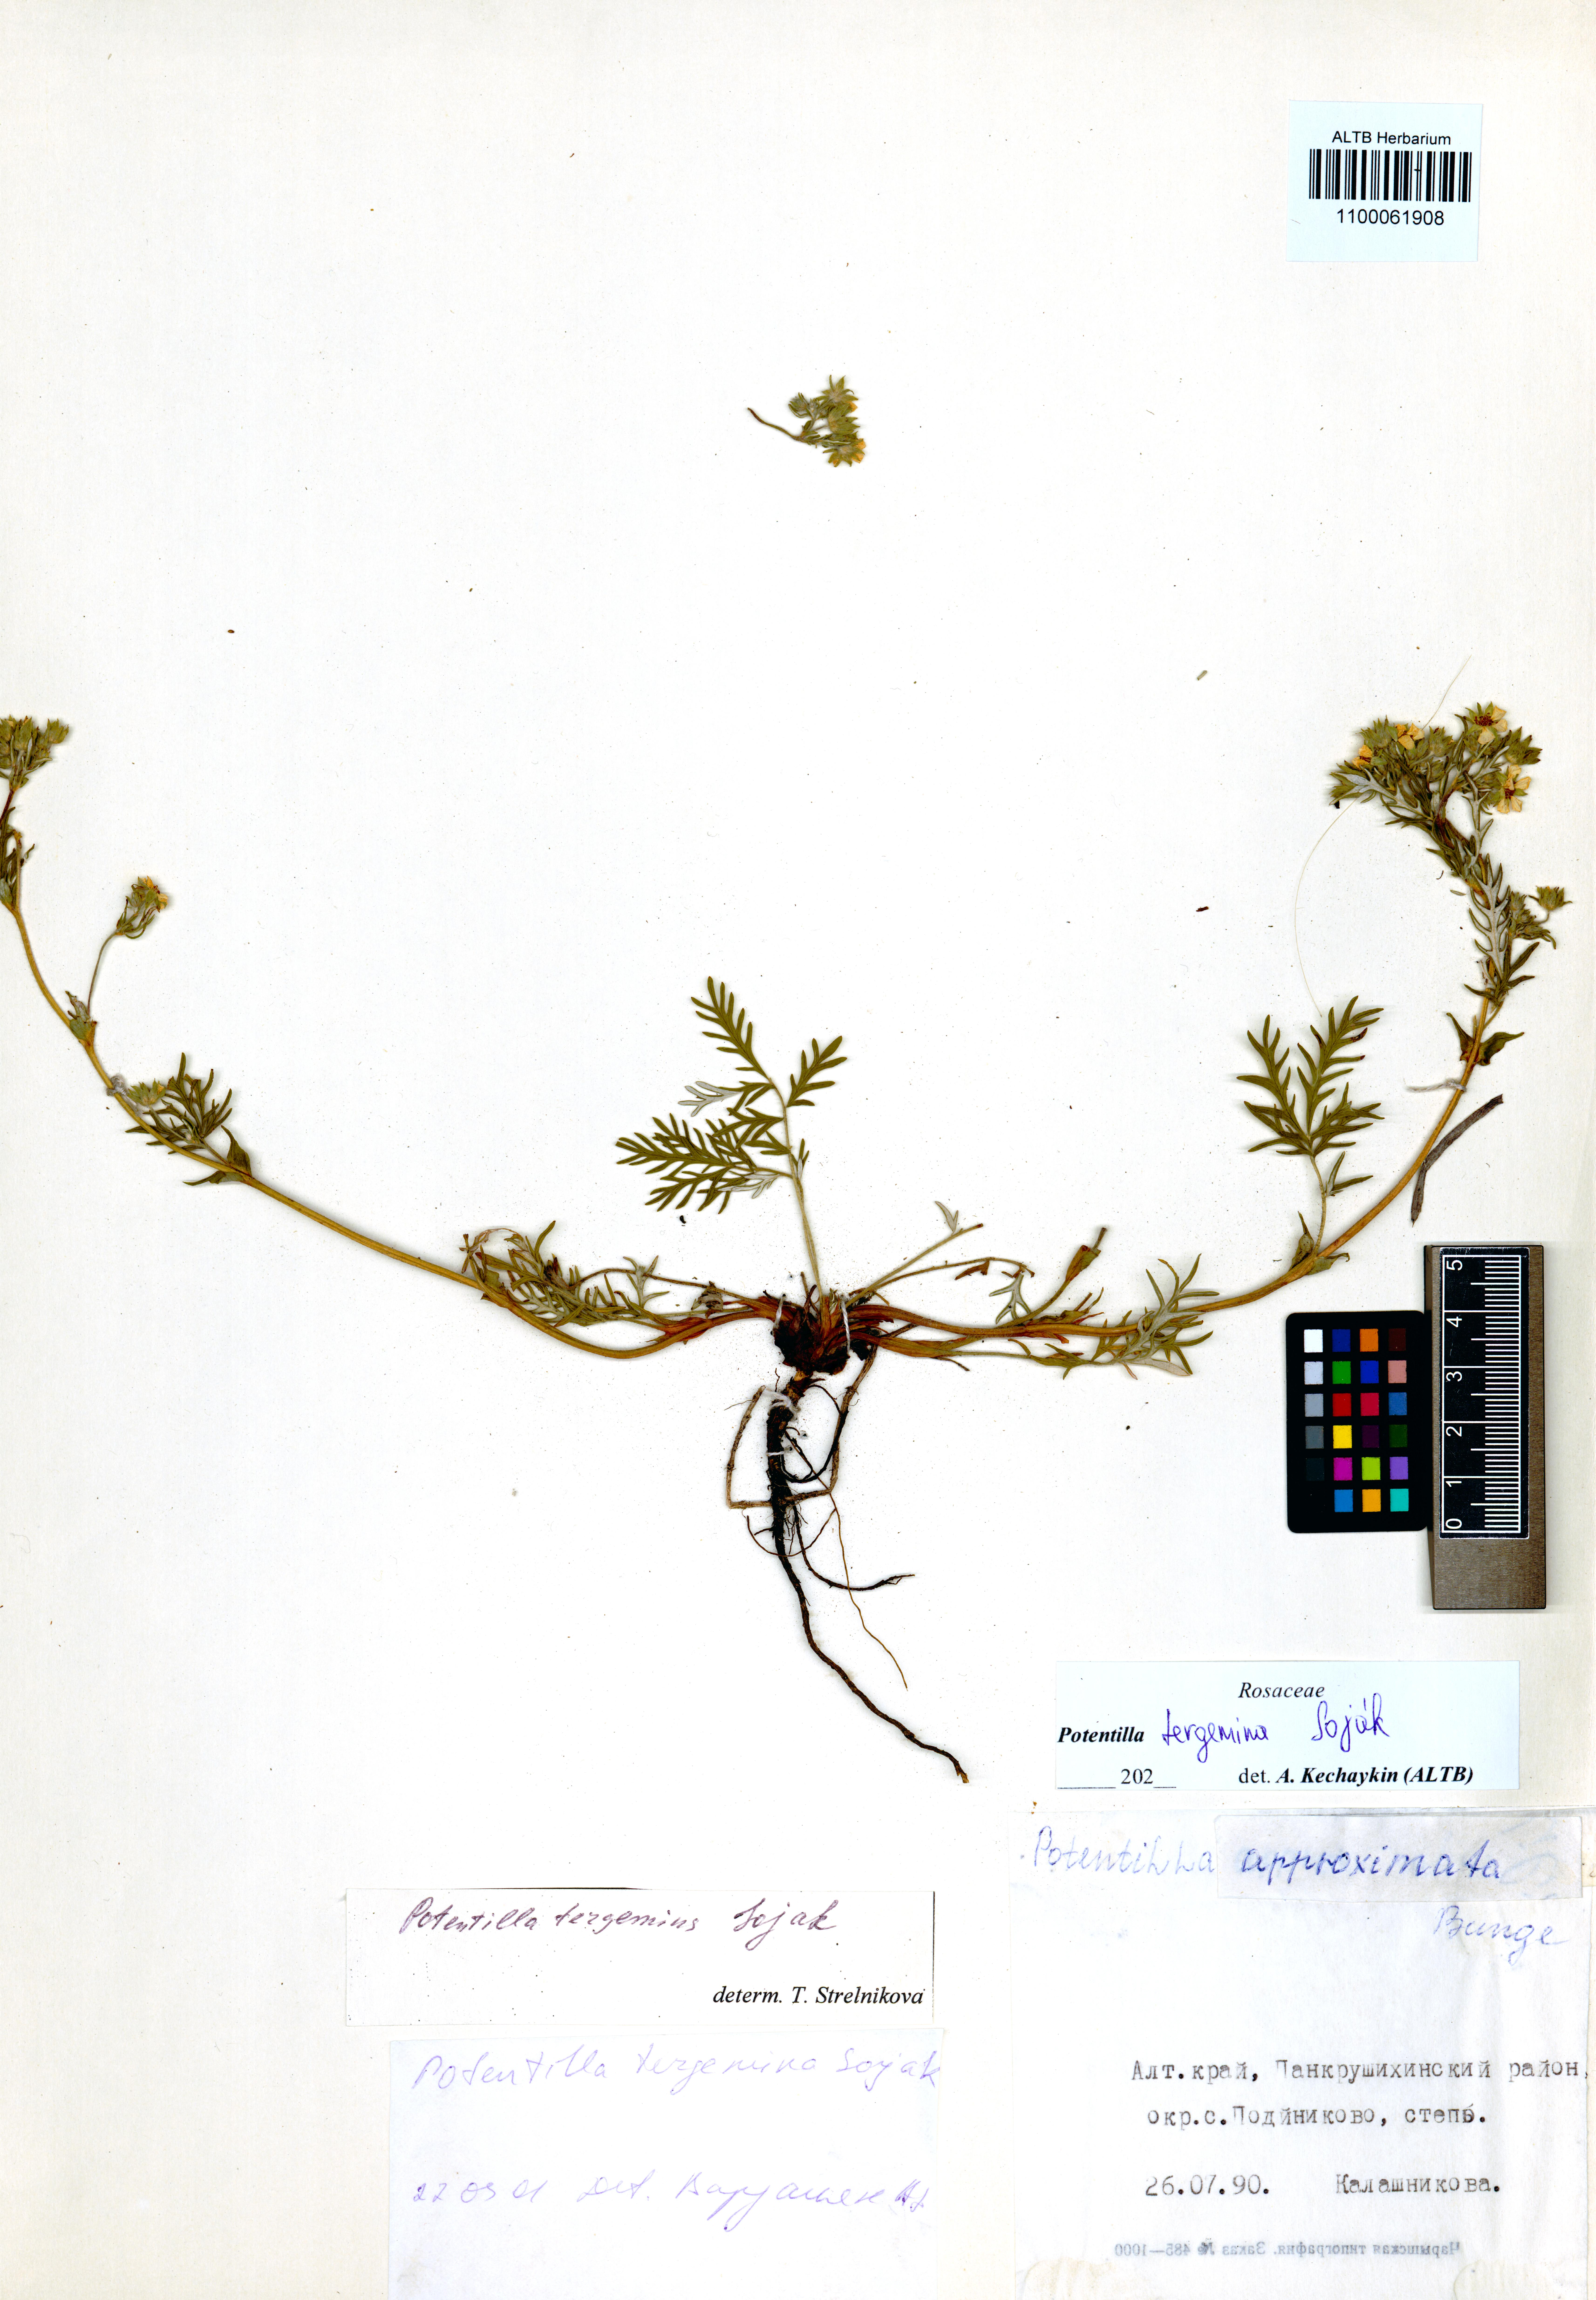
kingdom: Plantae
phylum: Tracheophyta
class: Magnoliopsida
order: Rosales
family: Rosaceae
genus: Potentilla
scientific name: Potentilla tergemina
